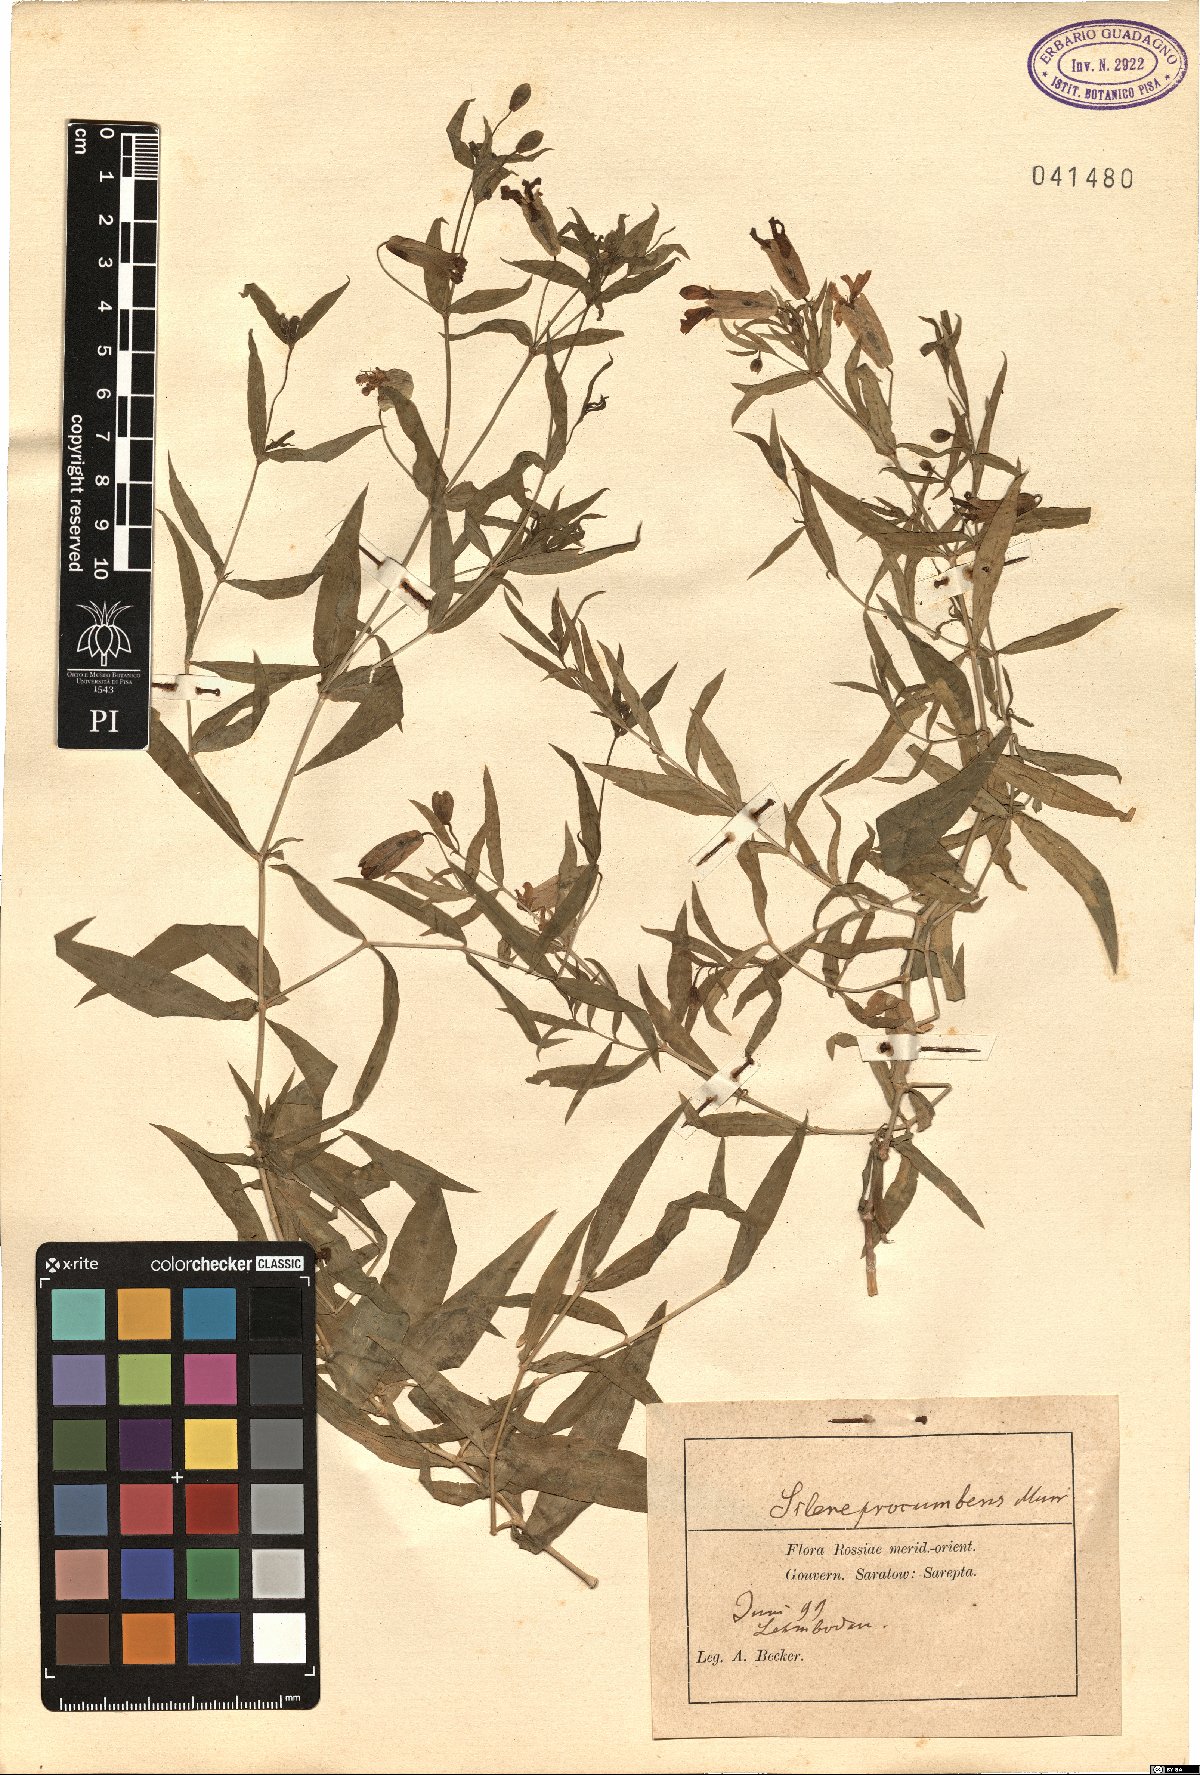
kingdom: Plantae
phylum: Tracheophyta
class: Magnoliopsida
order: Caryophyllales
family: Caryophyllaceae
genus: Silene
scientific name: Silene procumbens
